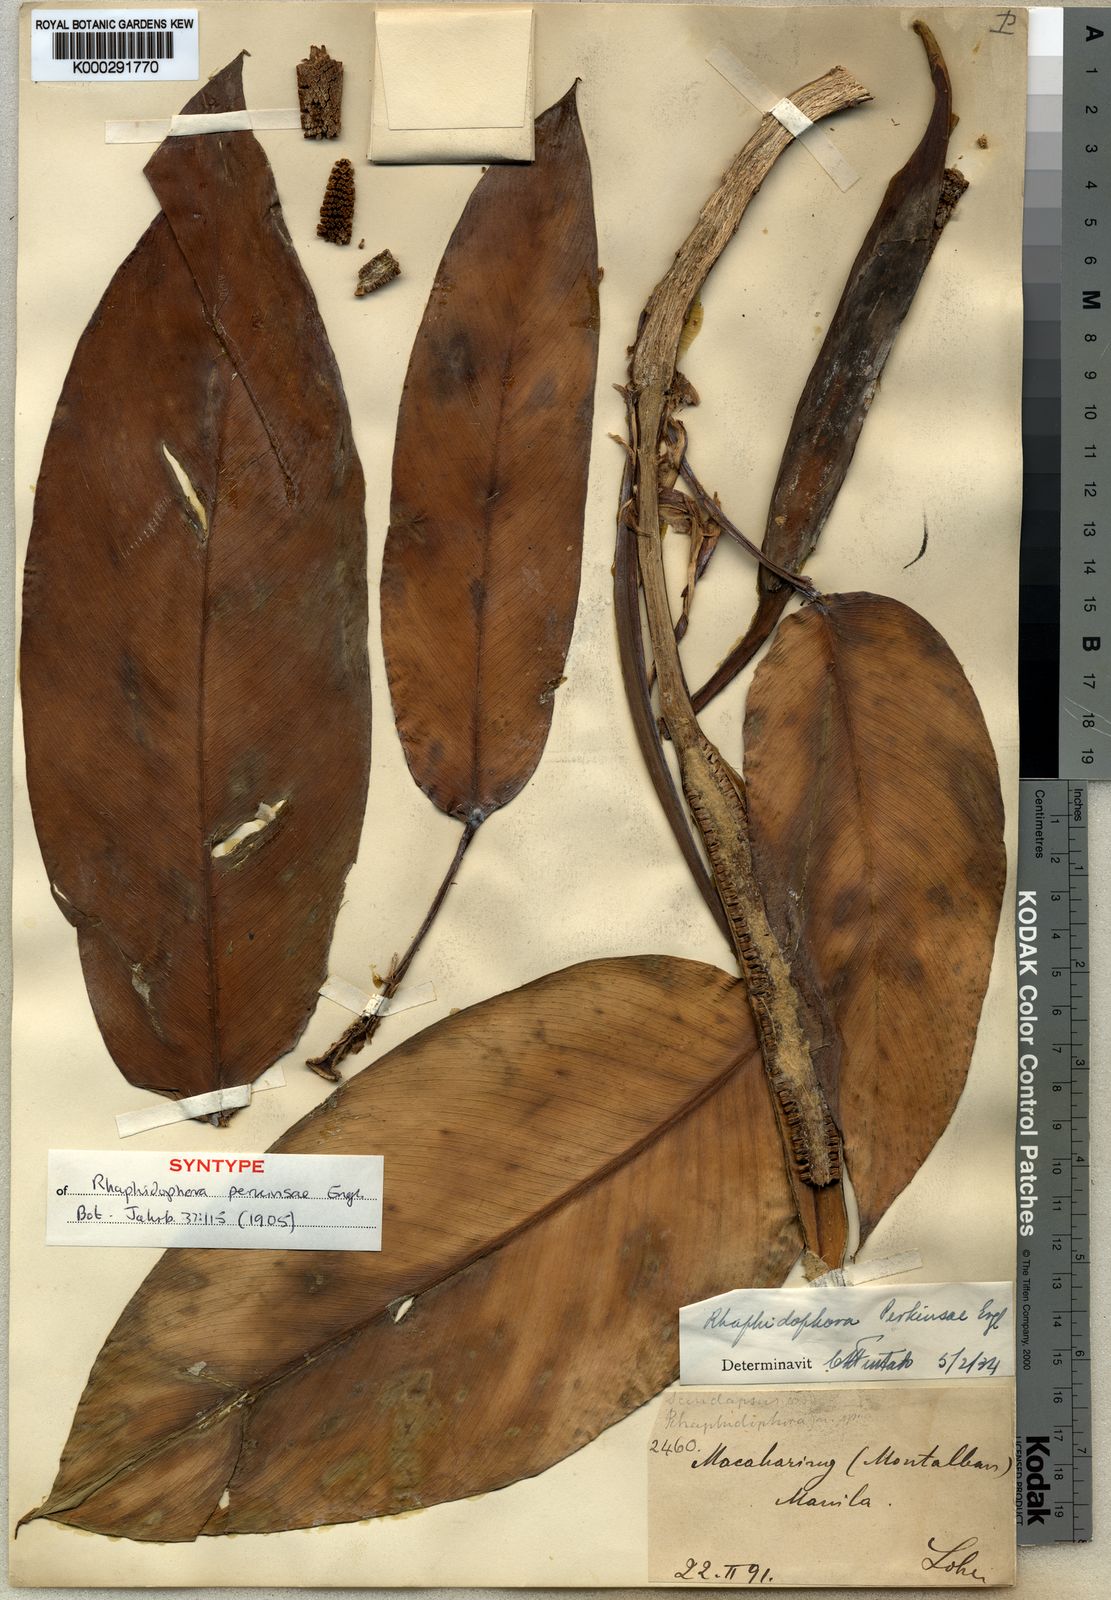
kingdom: Plantae
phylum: Tracheophyta
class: Liliopsida
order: Alismatales
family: Araceae
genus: Rhaphidophora
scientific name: Rhaphidophora perkinsiae
